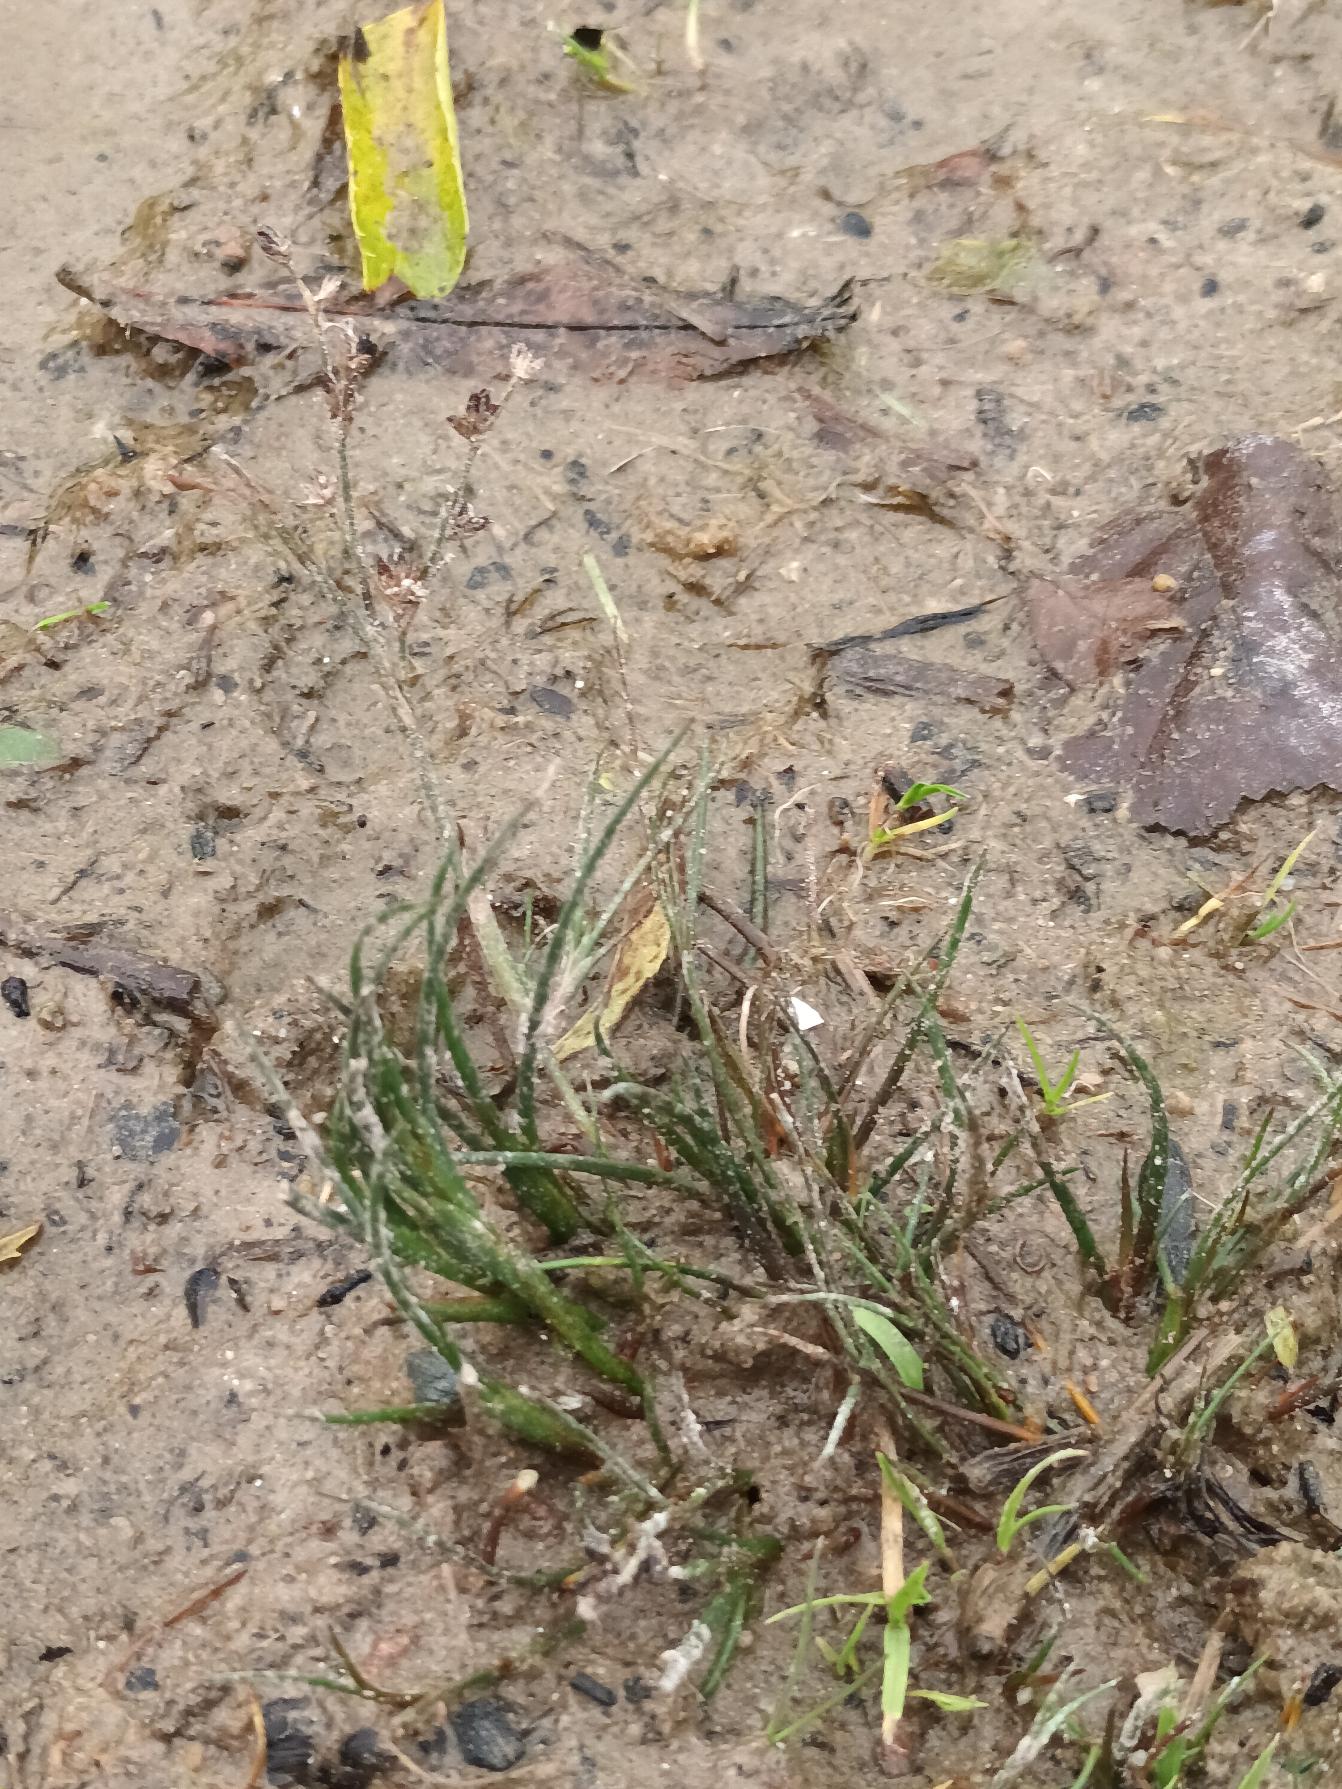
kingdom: Plantae
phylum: Tracheophyta
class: Liliopsida
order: Poales
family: Juncaceae
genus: Juncus
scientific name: Juncus articulatus
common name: Glanskapslet siv
